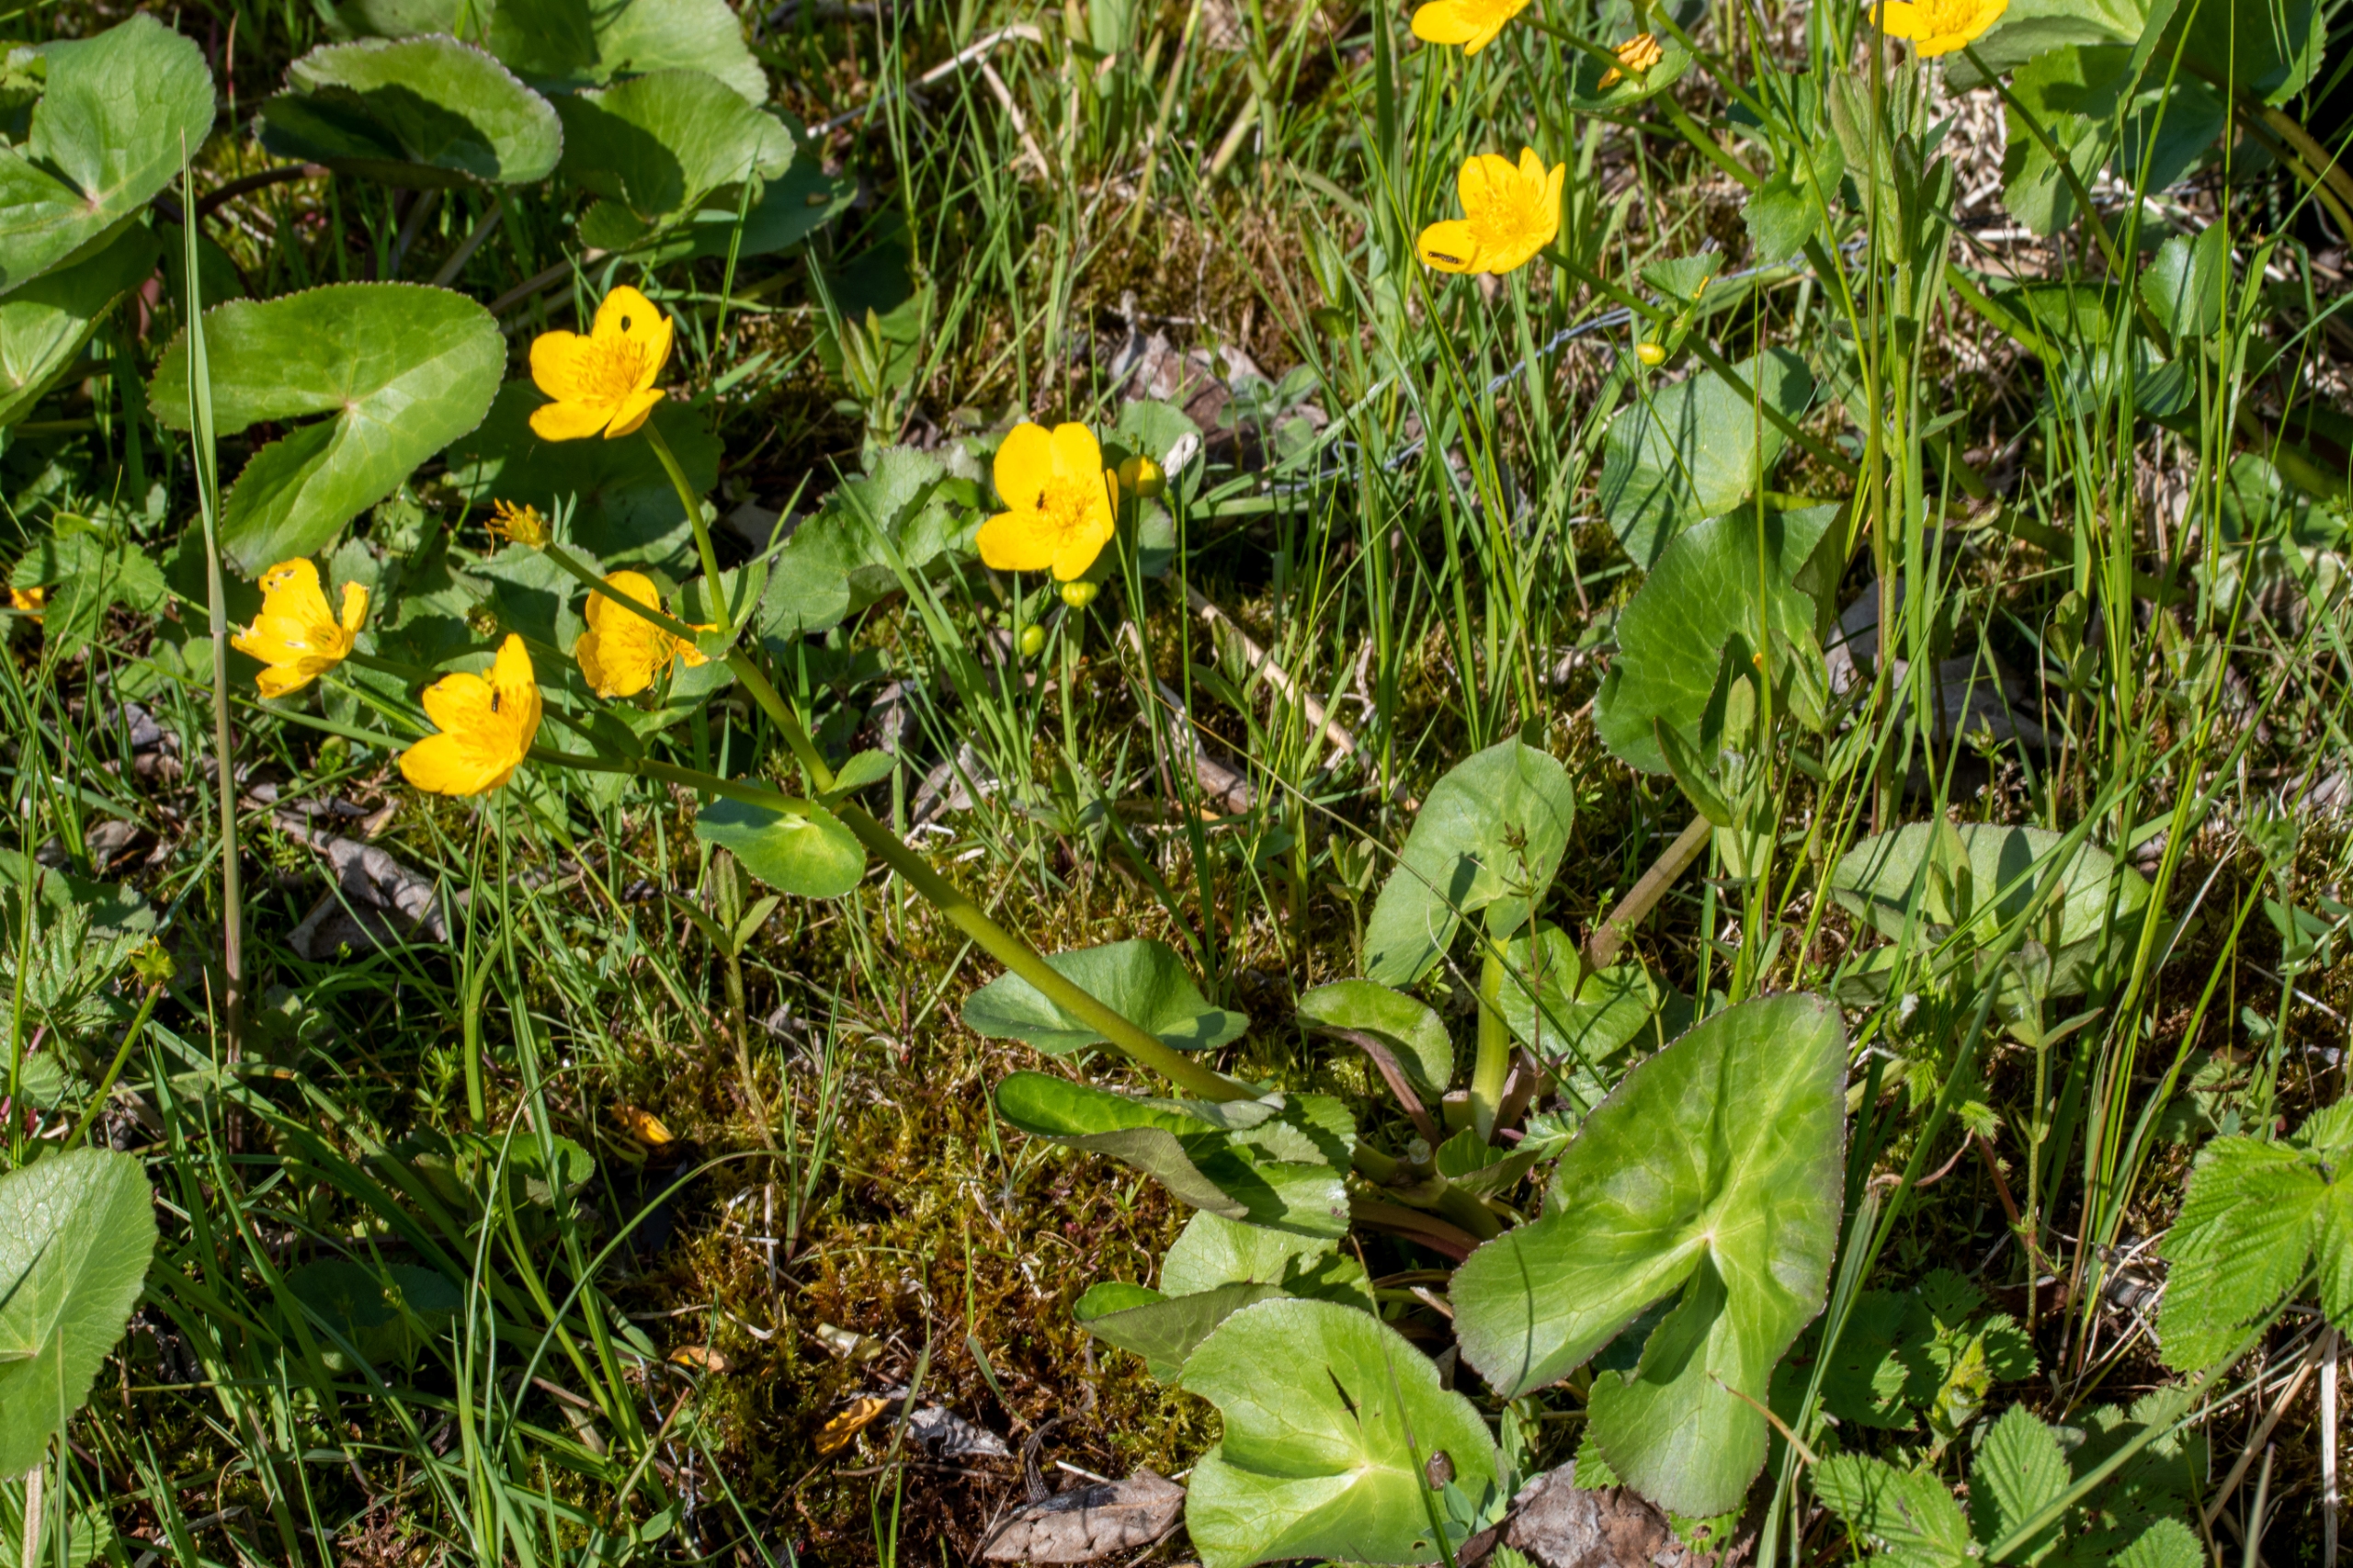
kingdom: Plantae
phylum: Tracheophyta
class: Magnoliopsida
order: Ranunculales
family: Ranunculaceae
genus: Caltha
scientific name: Caltha palustris
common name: Eng-kabbeleje
